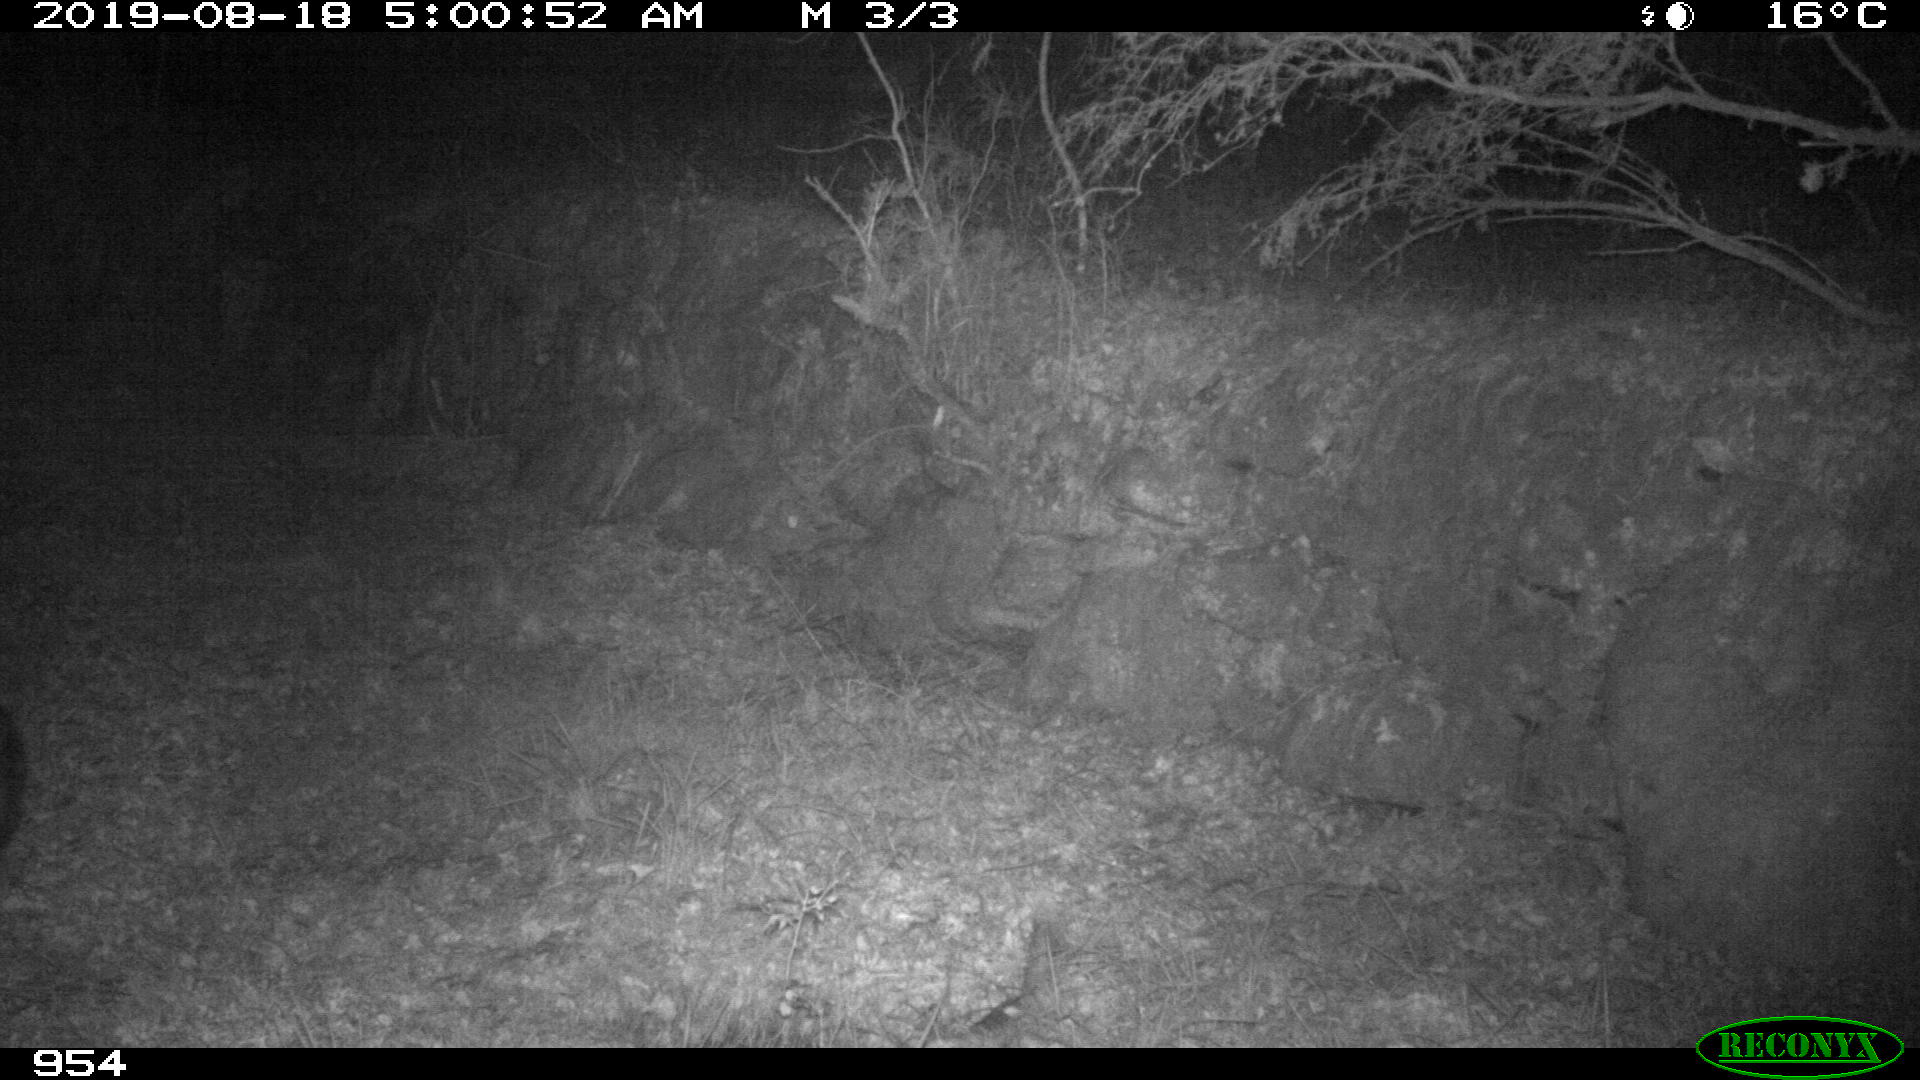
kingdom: Animalia
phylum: Chordata
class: Mammalia
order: Artiodactyla
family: Suidae
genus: Sus
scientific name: Sus scrofa
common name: Wild boar
